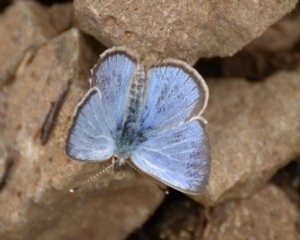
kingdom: Animalia
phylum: Arthropoda
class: Insecta
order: Lepidoptera
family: Lycaenidae
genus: Glaucopsyche
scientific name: Glaucopsyche lygdamus
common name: Silvery Blue
